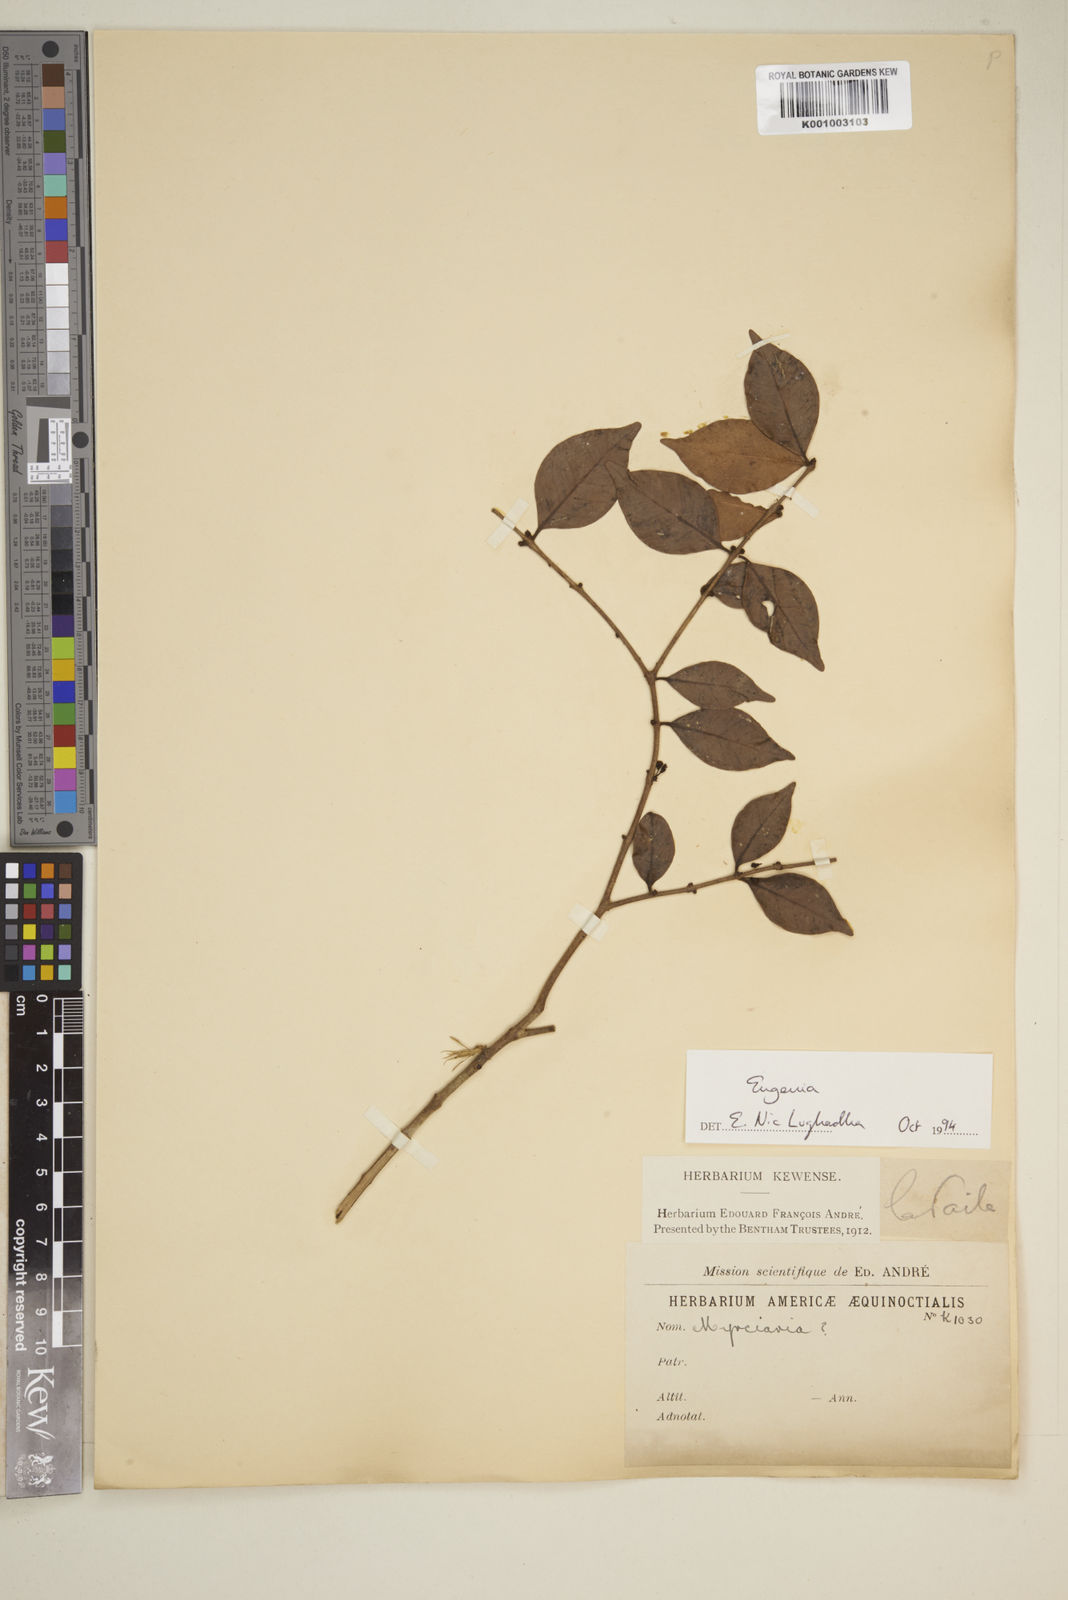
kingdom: Plantae
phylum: Tracheophyta
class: Magnoliopsida
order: Myrtales
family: Myrtaceae
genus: Eugenia
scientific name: Eugenia
